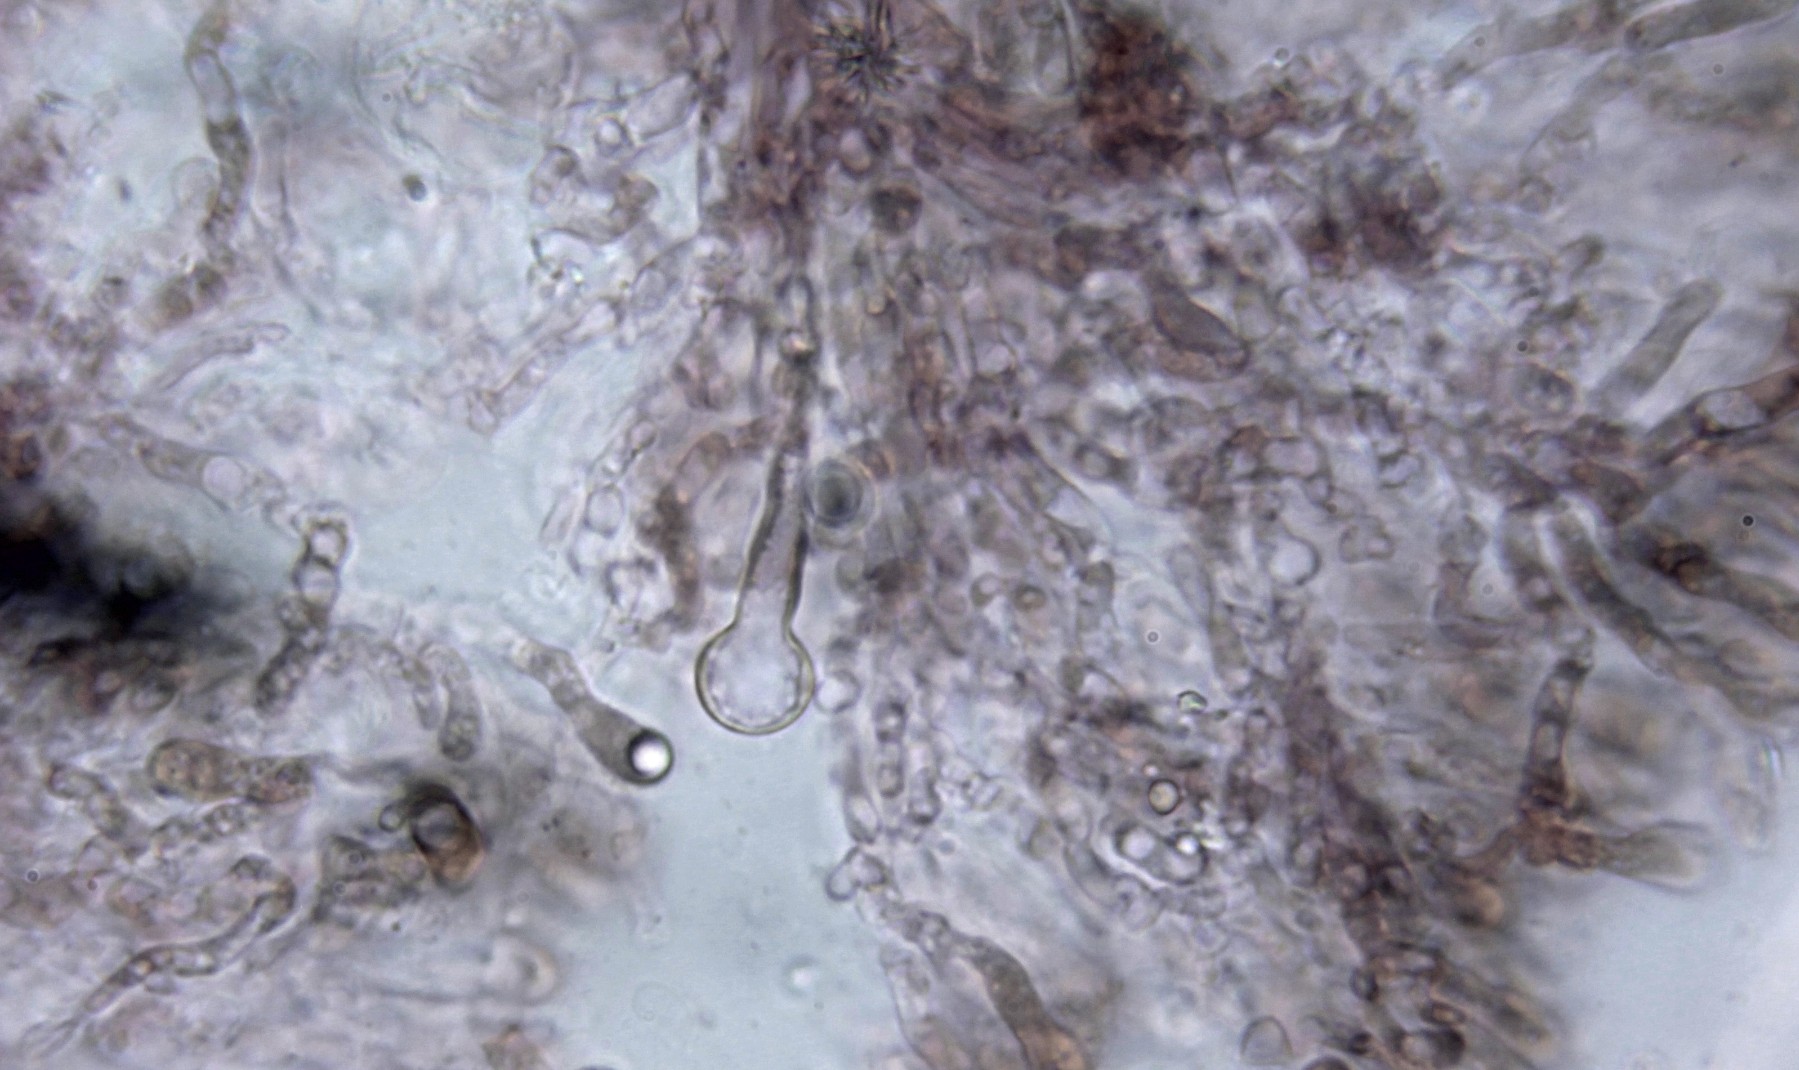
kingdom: Fungi
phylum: Basidiomycota
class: Agaricomycetes
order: Hymenochaetales
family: Rickenellaceae
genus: Resinicium
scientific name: Resinicium bicolor
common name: almindelig vokstand
